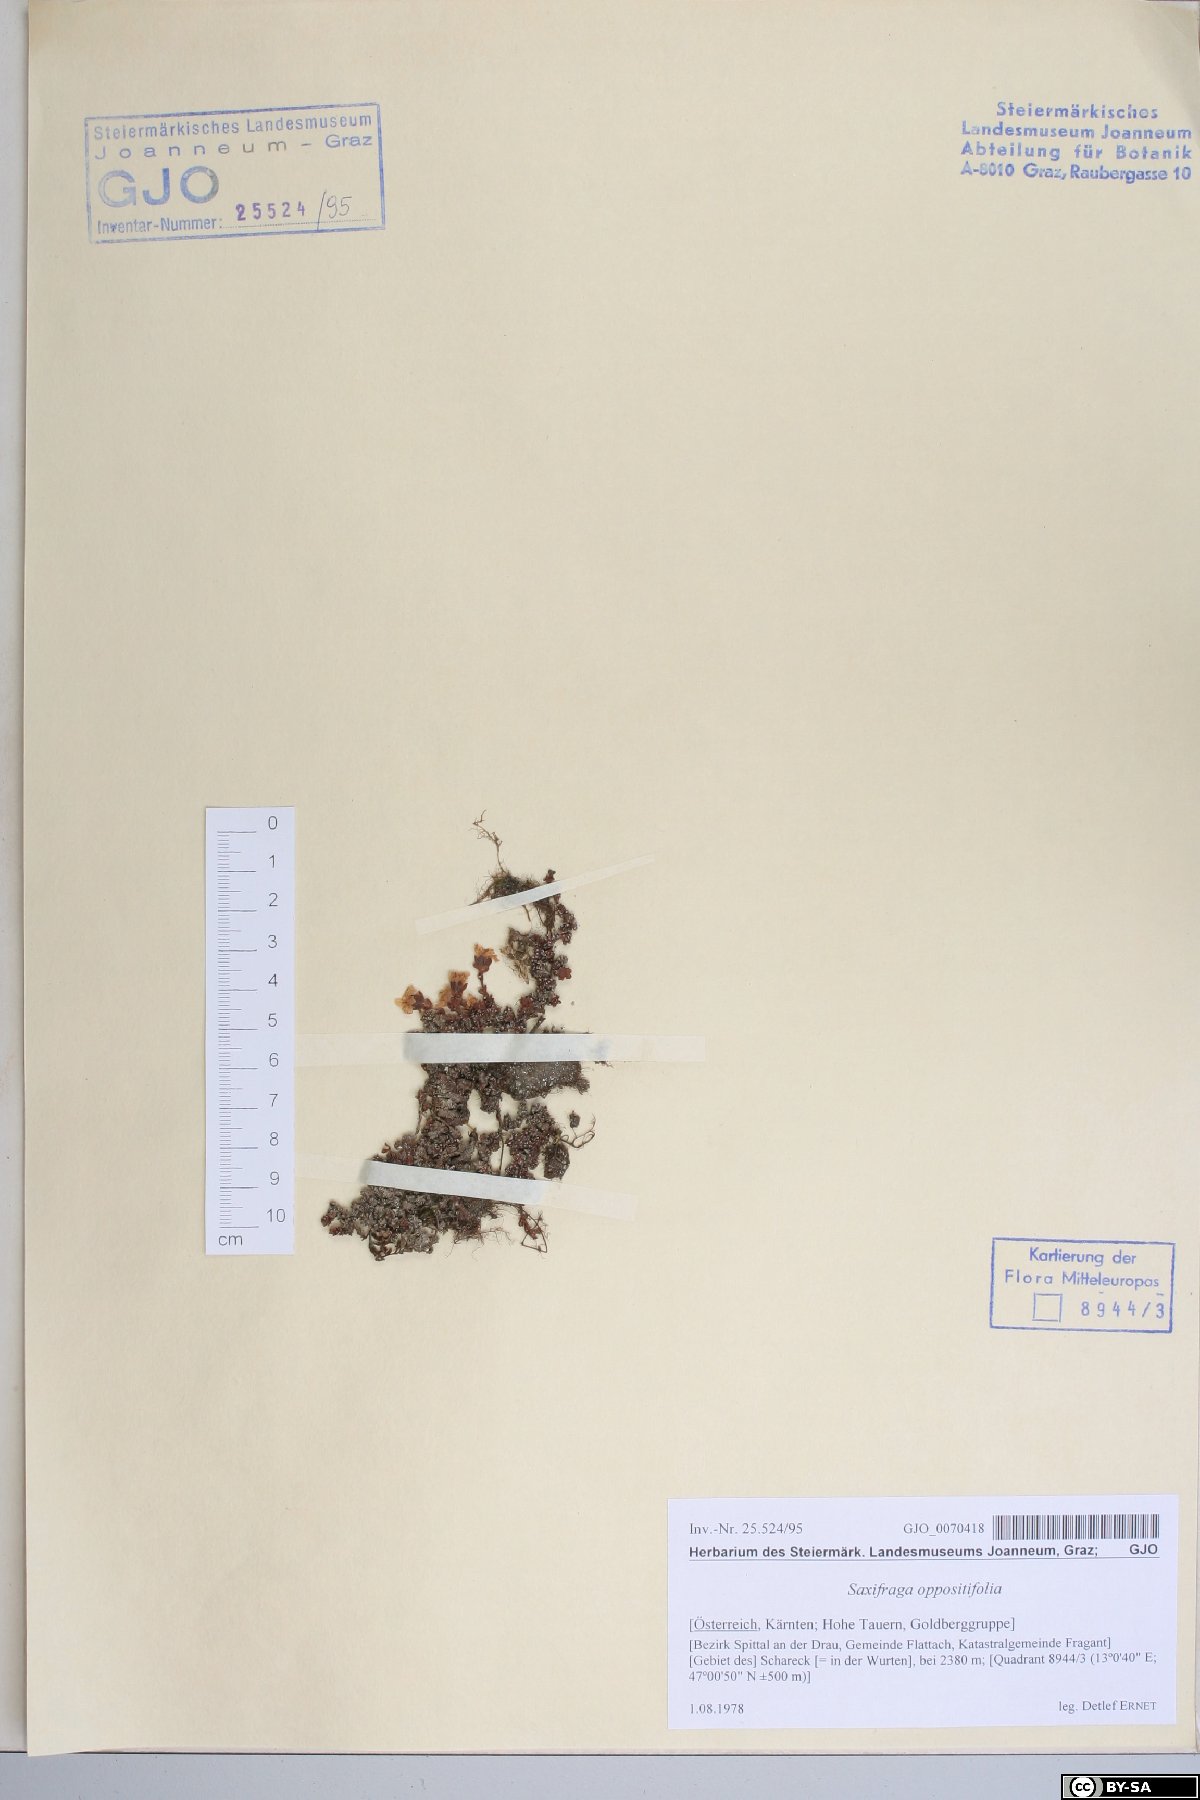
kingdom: Plantae
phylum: Tracheophyta
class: Magnoliopsida
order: Saxifragales
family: Saxifragaceae
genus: Saxifraga
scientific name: Saxifraga oppositifolia
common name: Purple saxifrage
